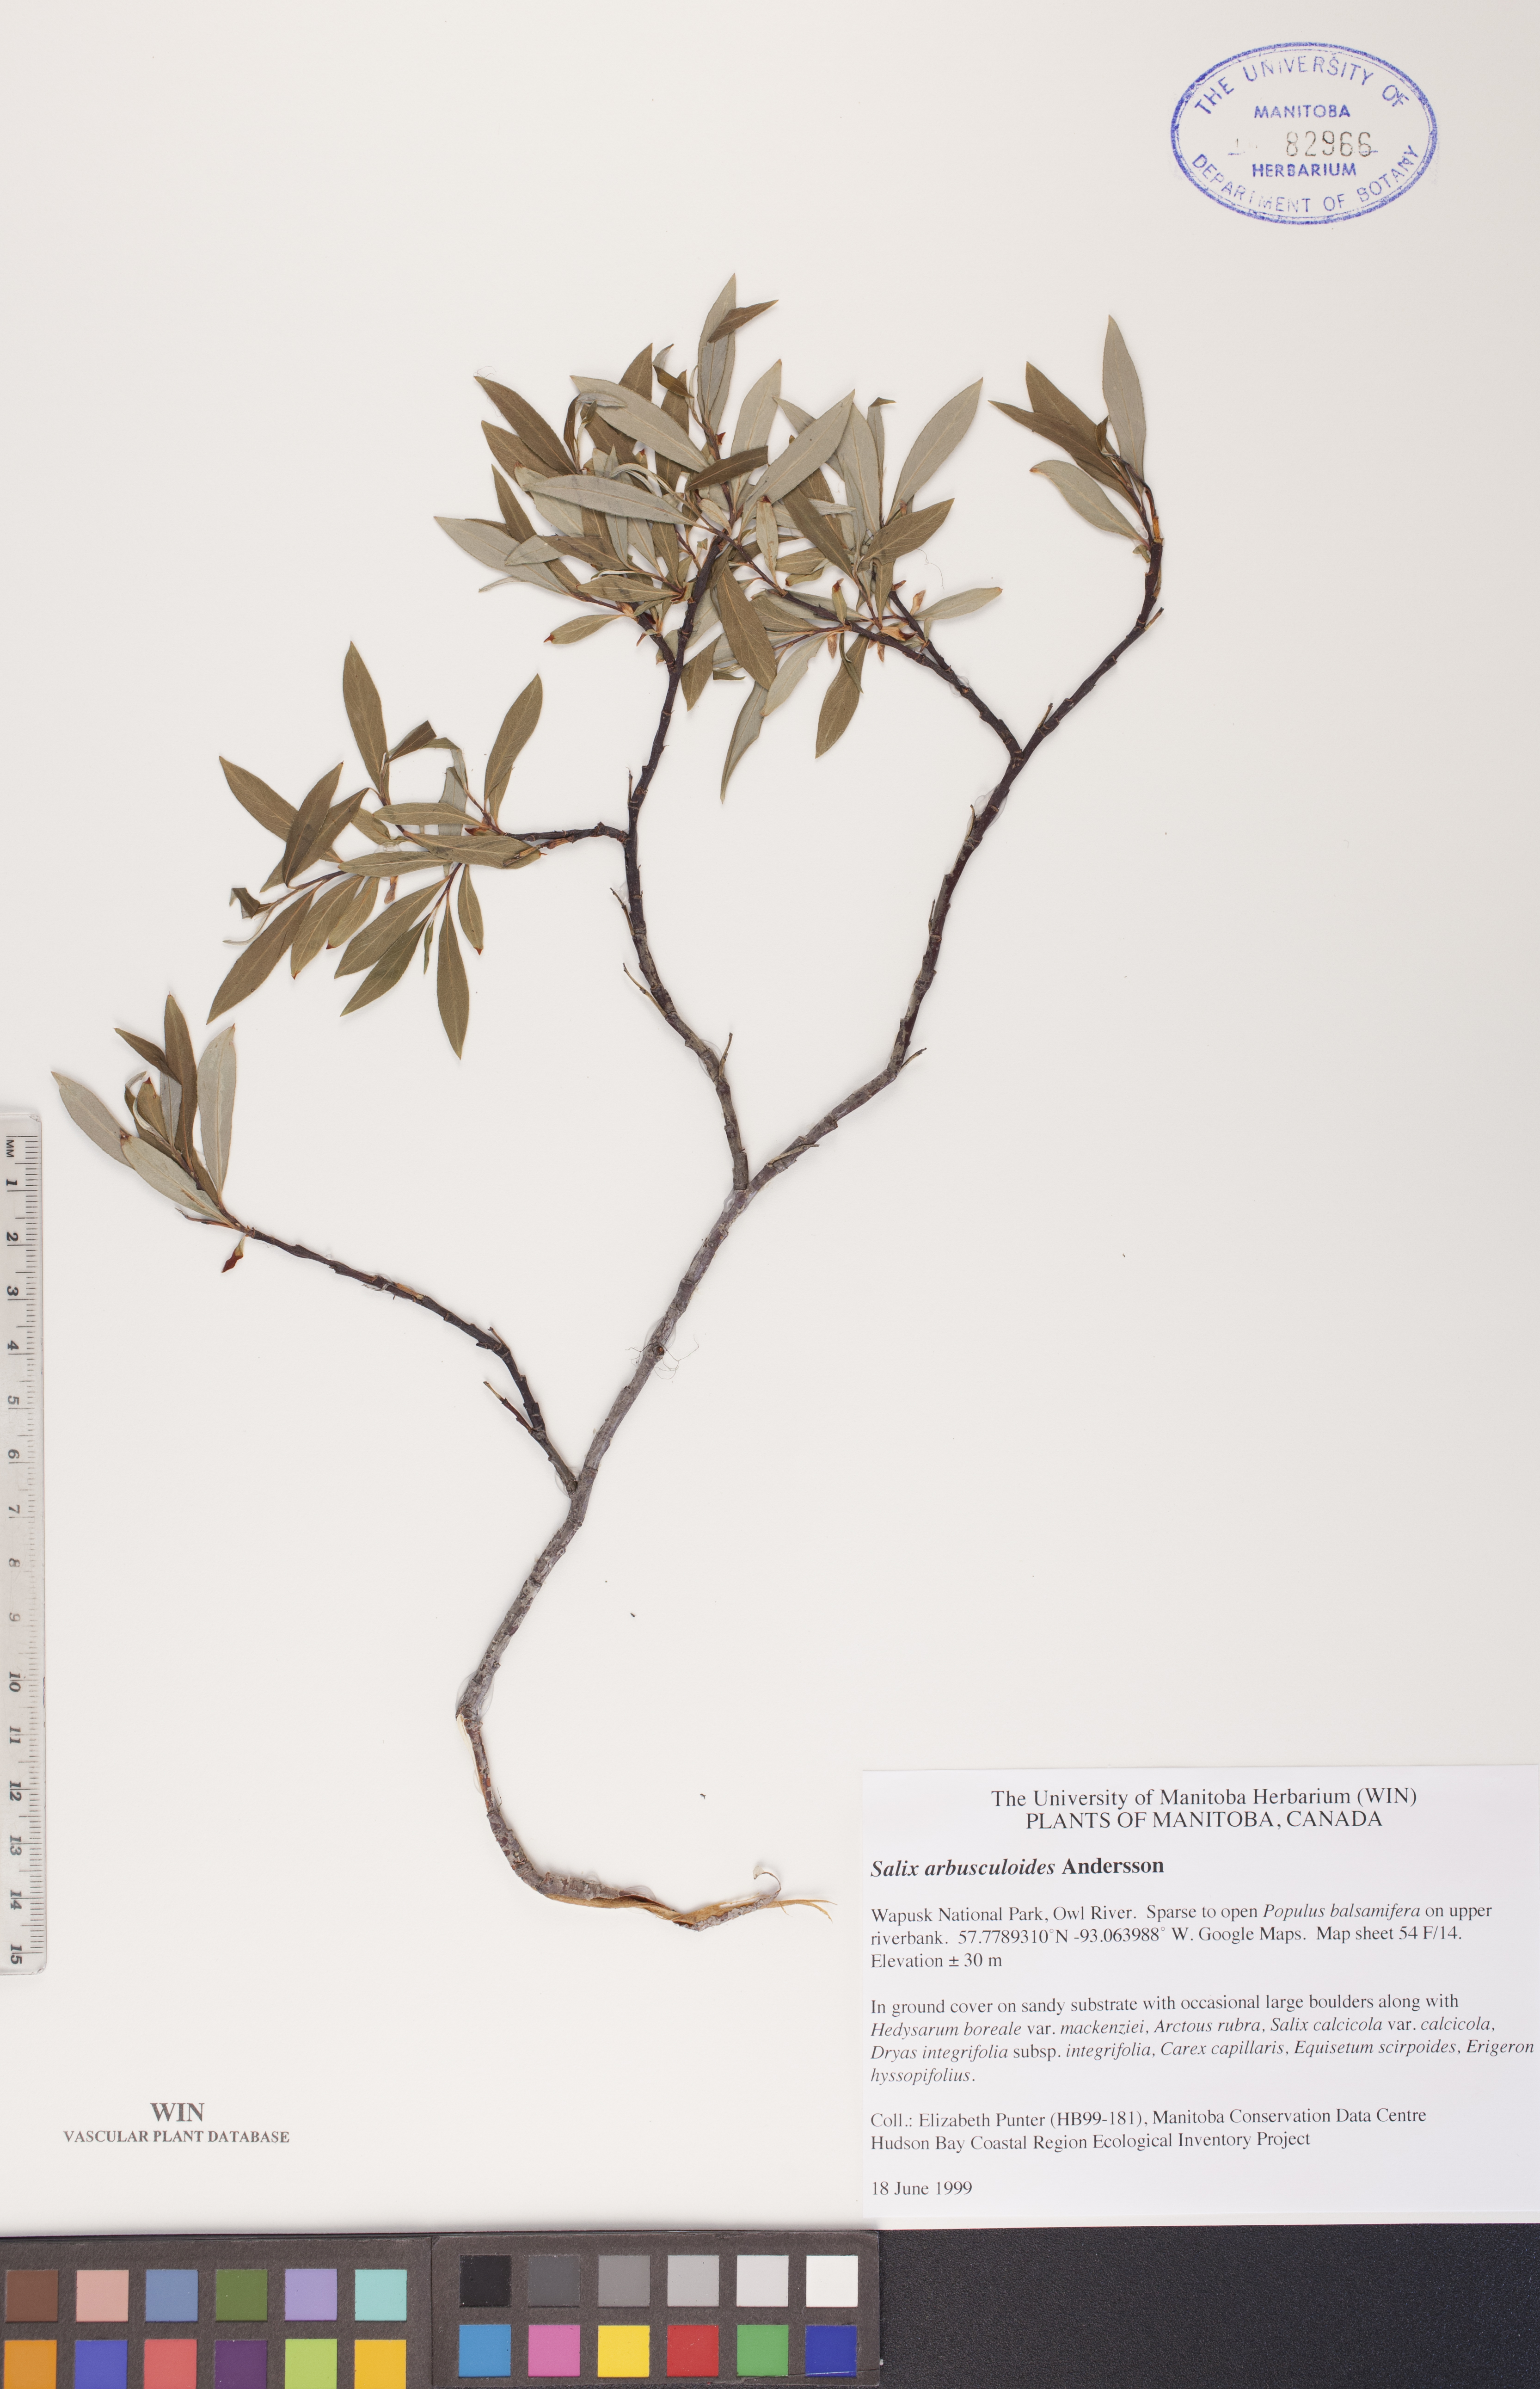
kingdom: Plantae
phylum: Tracheophyta
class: Magnoliopsida
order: Malpighiales
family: Salicaceae
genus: Salix
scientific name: Salix arbusculoides
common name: Little-tree willow
